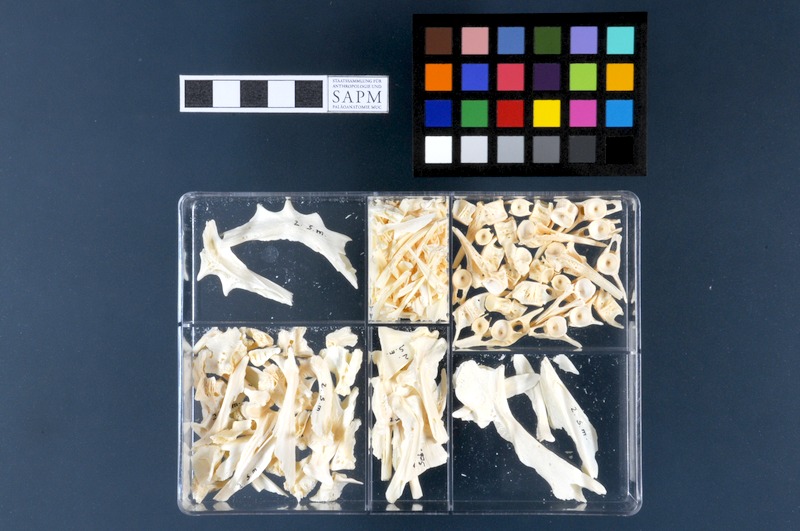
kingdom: Animalia
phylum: Chordata
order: Scorpaeniformes
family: Sebastidae
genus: Sebastes
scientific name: Sebastes mentella
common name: Deepwater redfish
